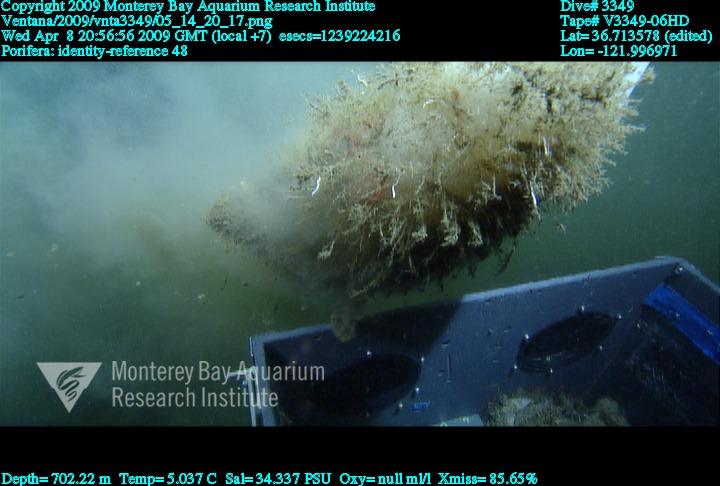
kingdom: Animalia
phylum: Porifera
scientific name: Porifera
